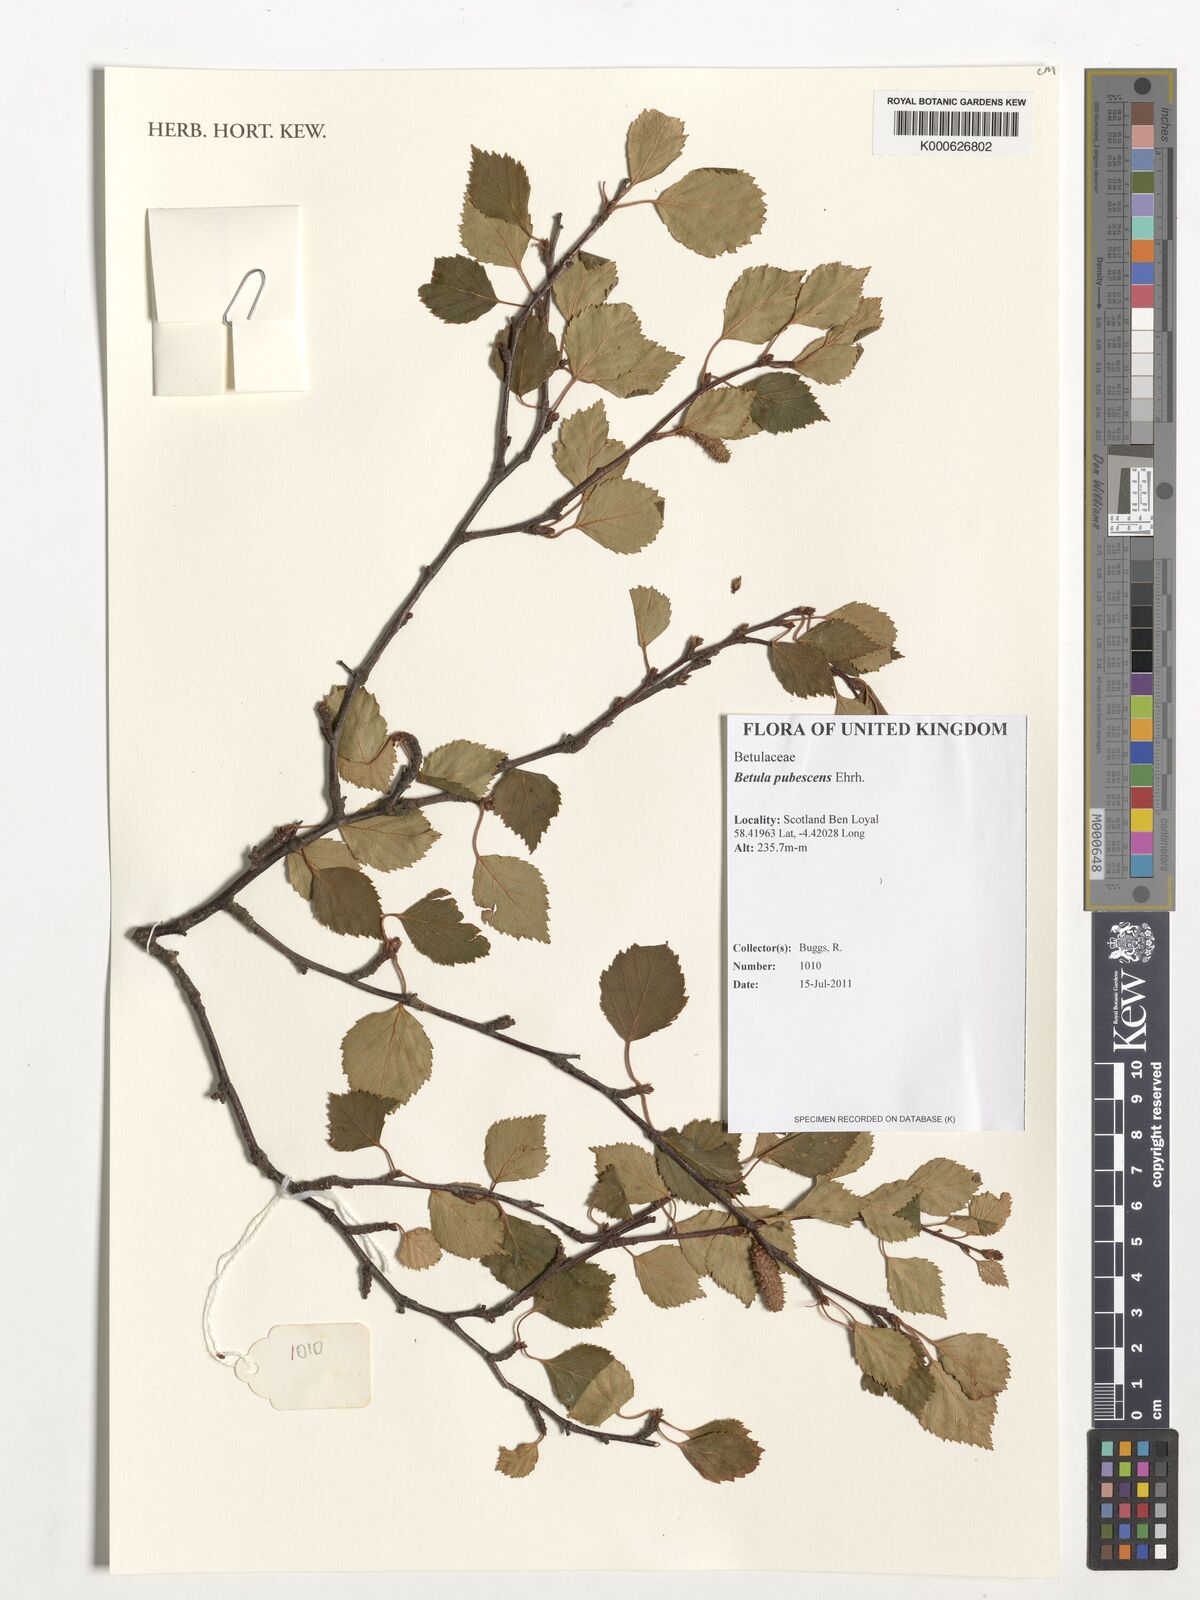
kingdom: Plantae
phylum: Tracheophyta
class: Magnoliopsida
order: Fagales
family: Betulaceae
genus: Betula
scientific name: Betula pubescens
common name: Downy birch
